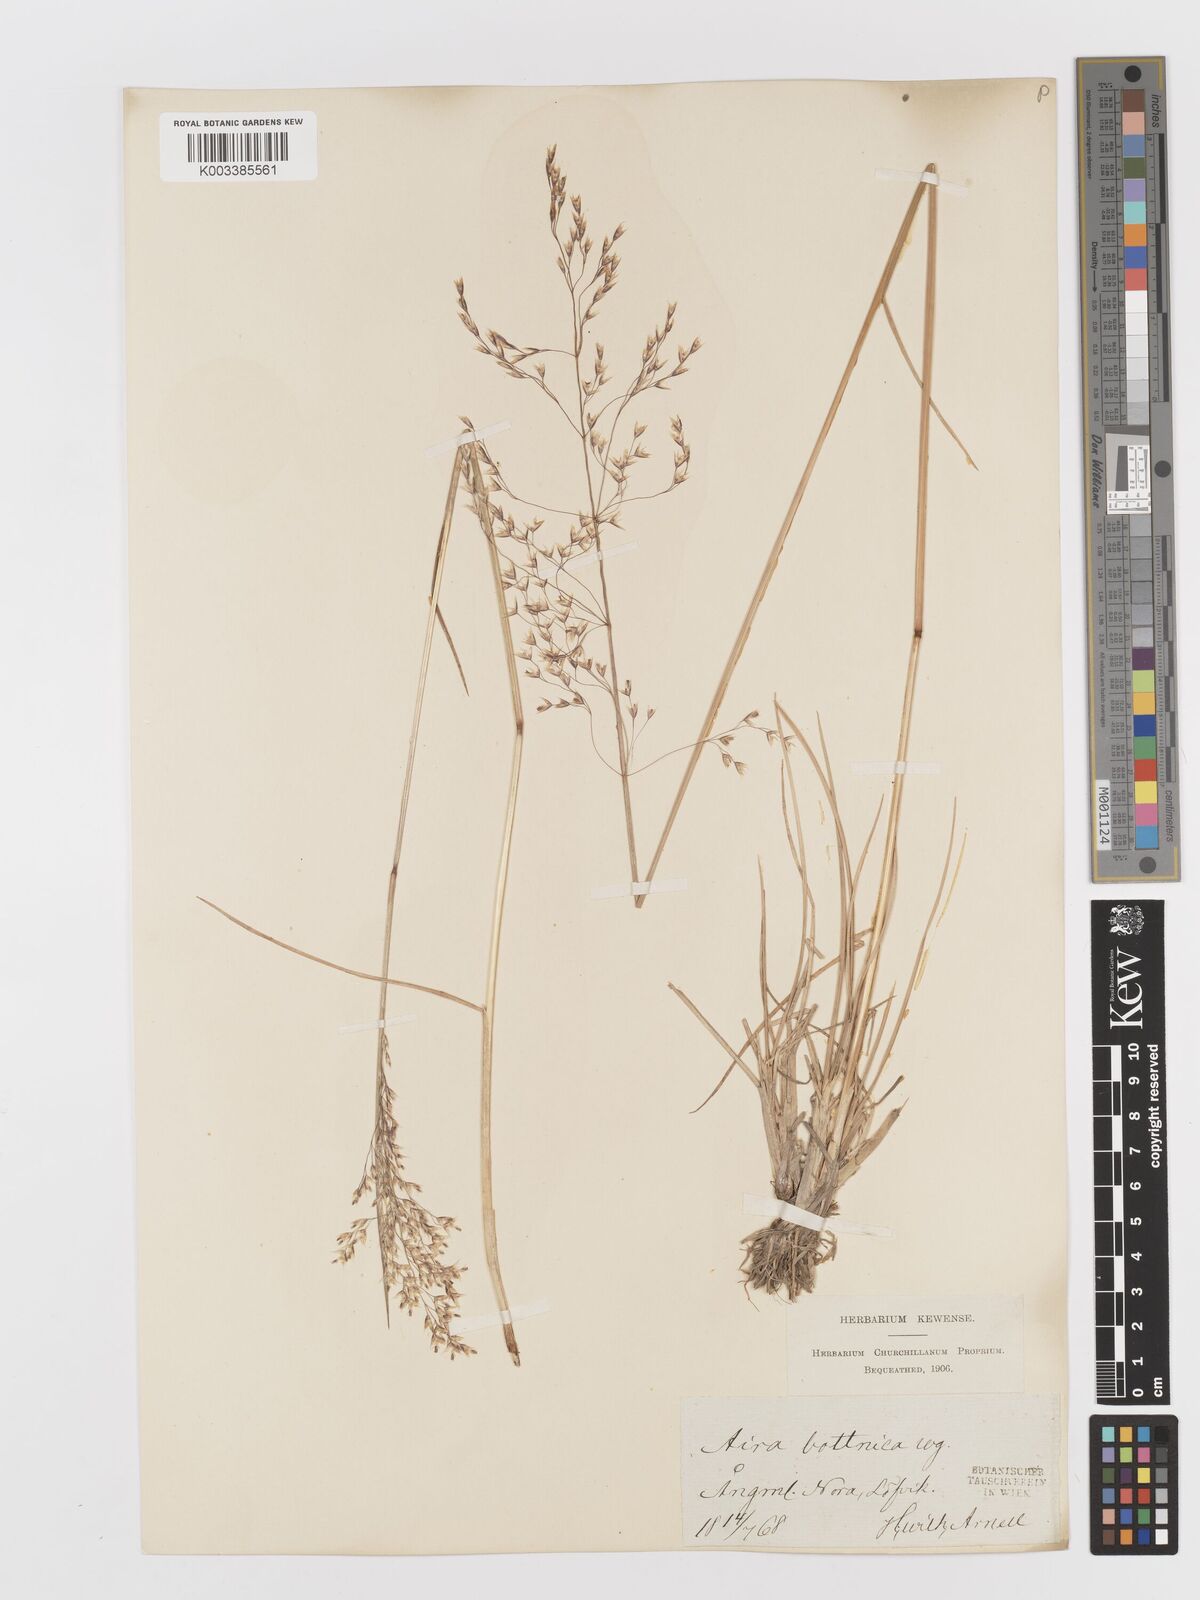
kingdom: Plantae
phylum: Tracheophyta
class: Liliopsida
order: Poales
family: Poaceae
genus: Deschampsia
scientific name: Deschampsia cespitosa
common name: Tufted hair-grass
